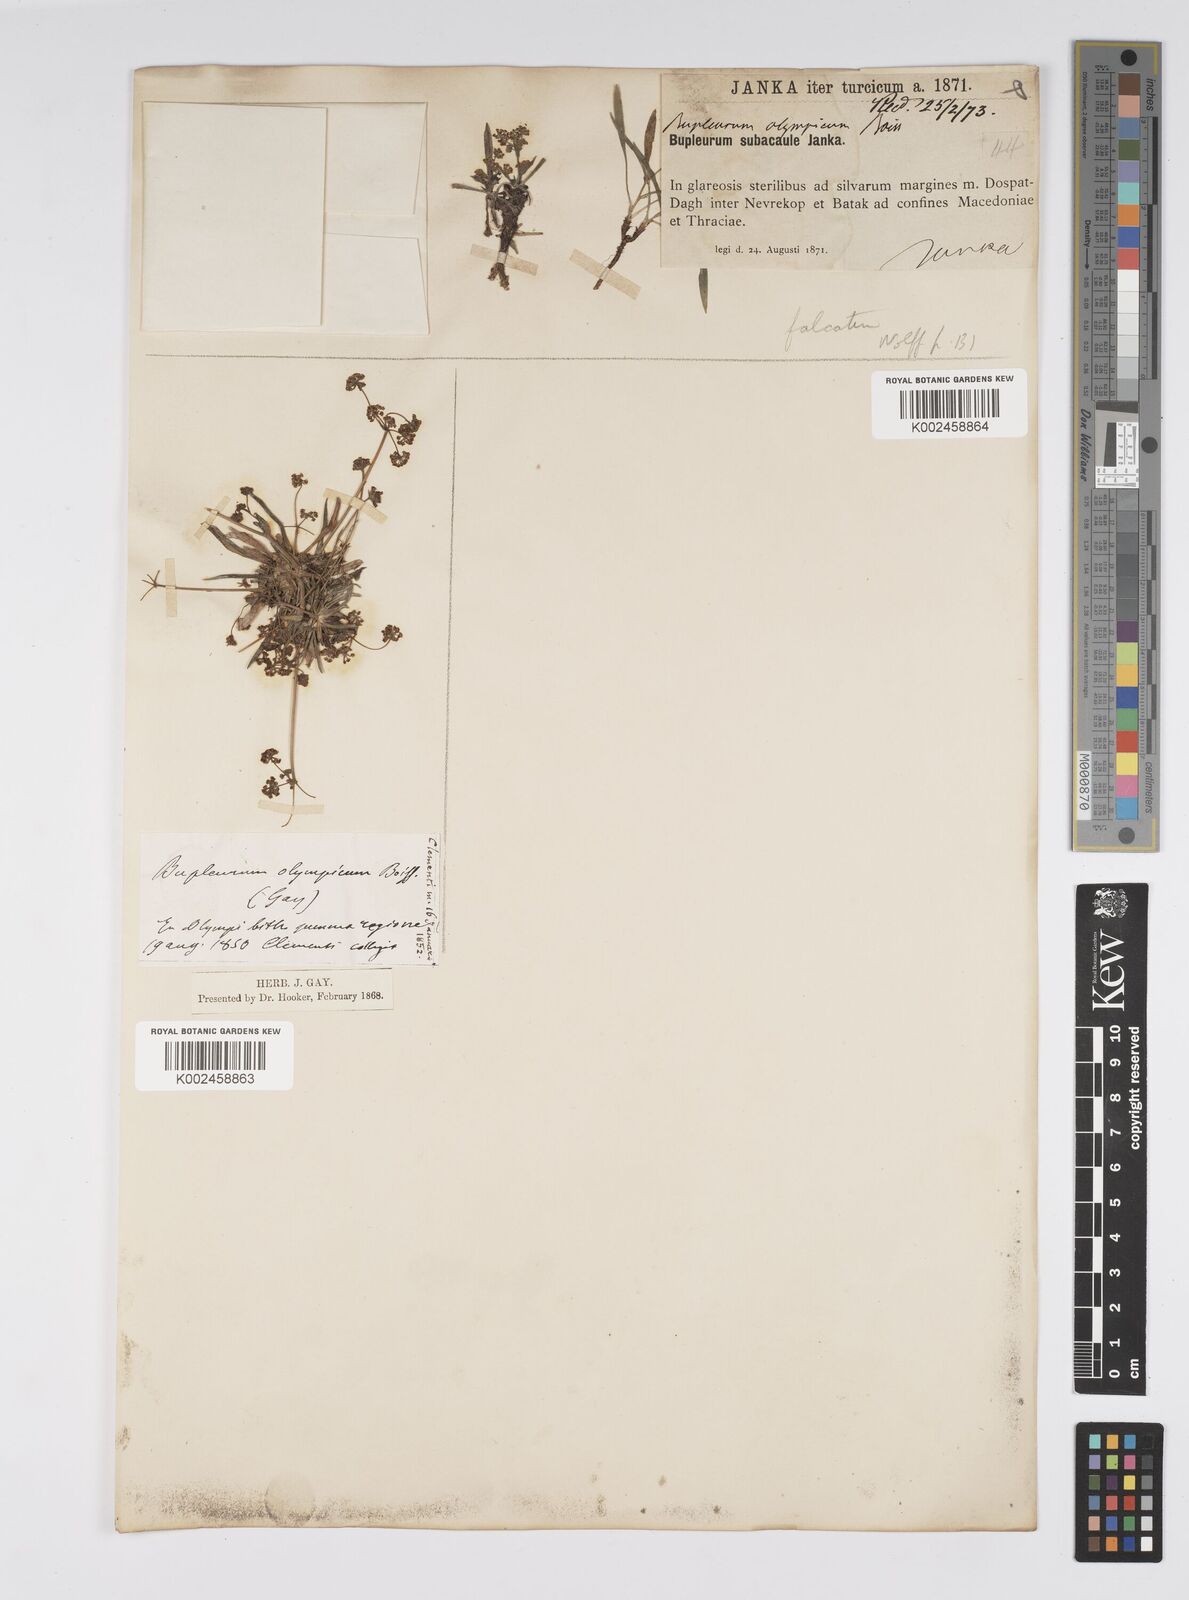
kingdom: Plantae
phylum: Tracheophyta
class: Magnoliopsida
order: Apiales
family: Apiaceae
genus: Bupleurum
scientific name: Bupleurum falcatum
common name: Sickle-leaved hare's-ear
